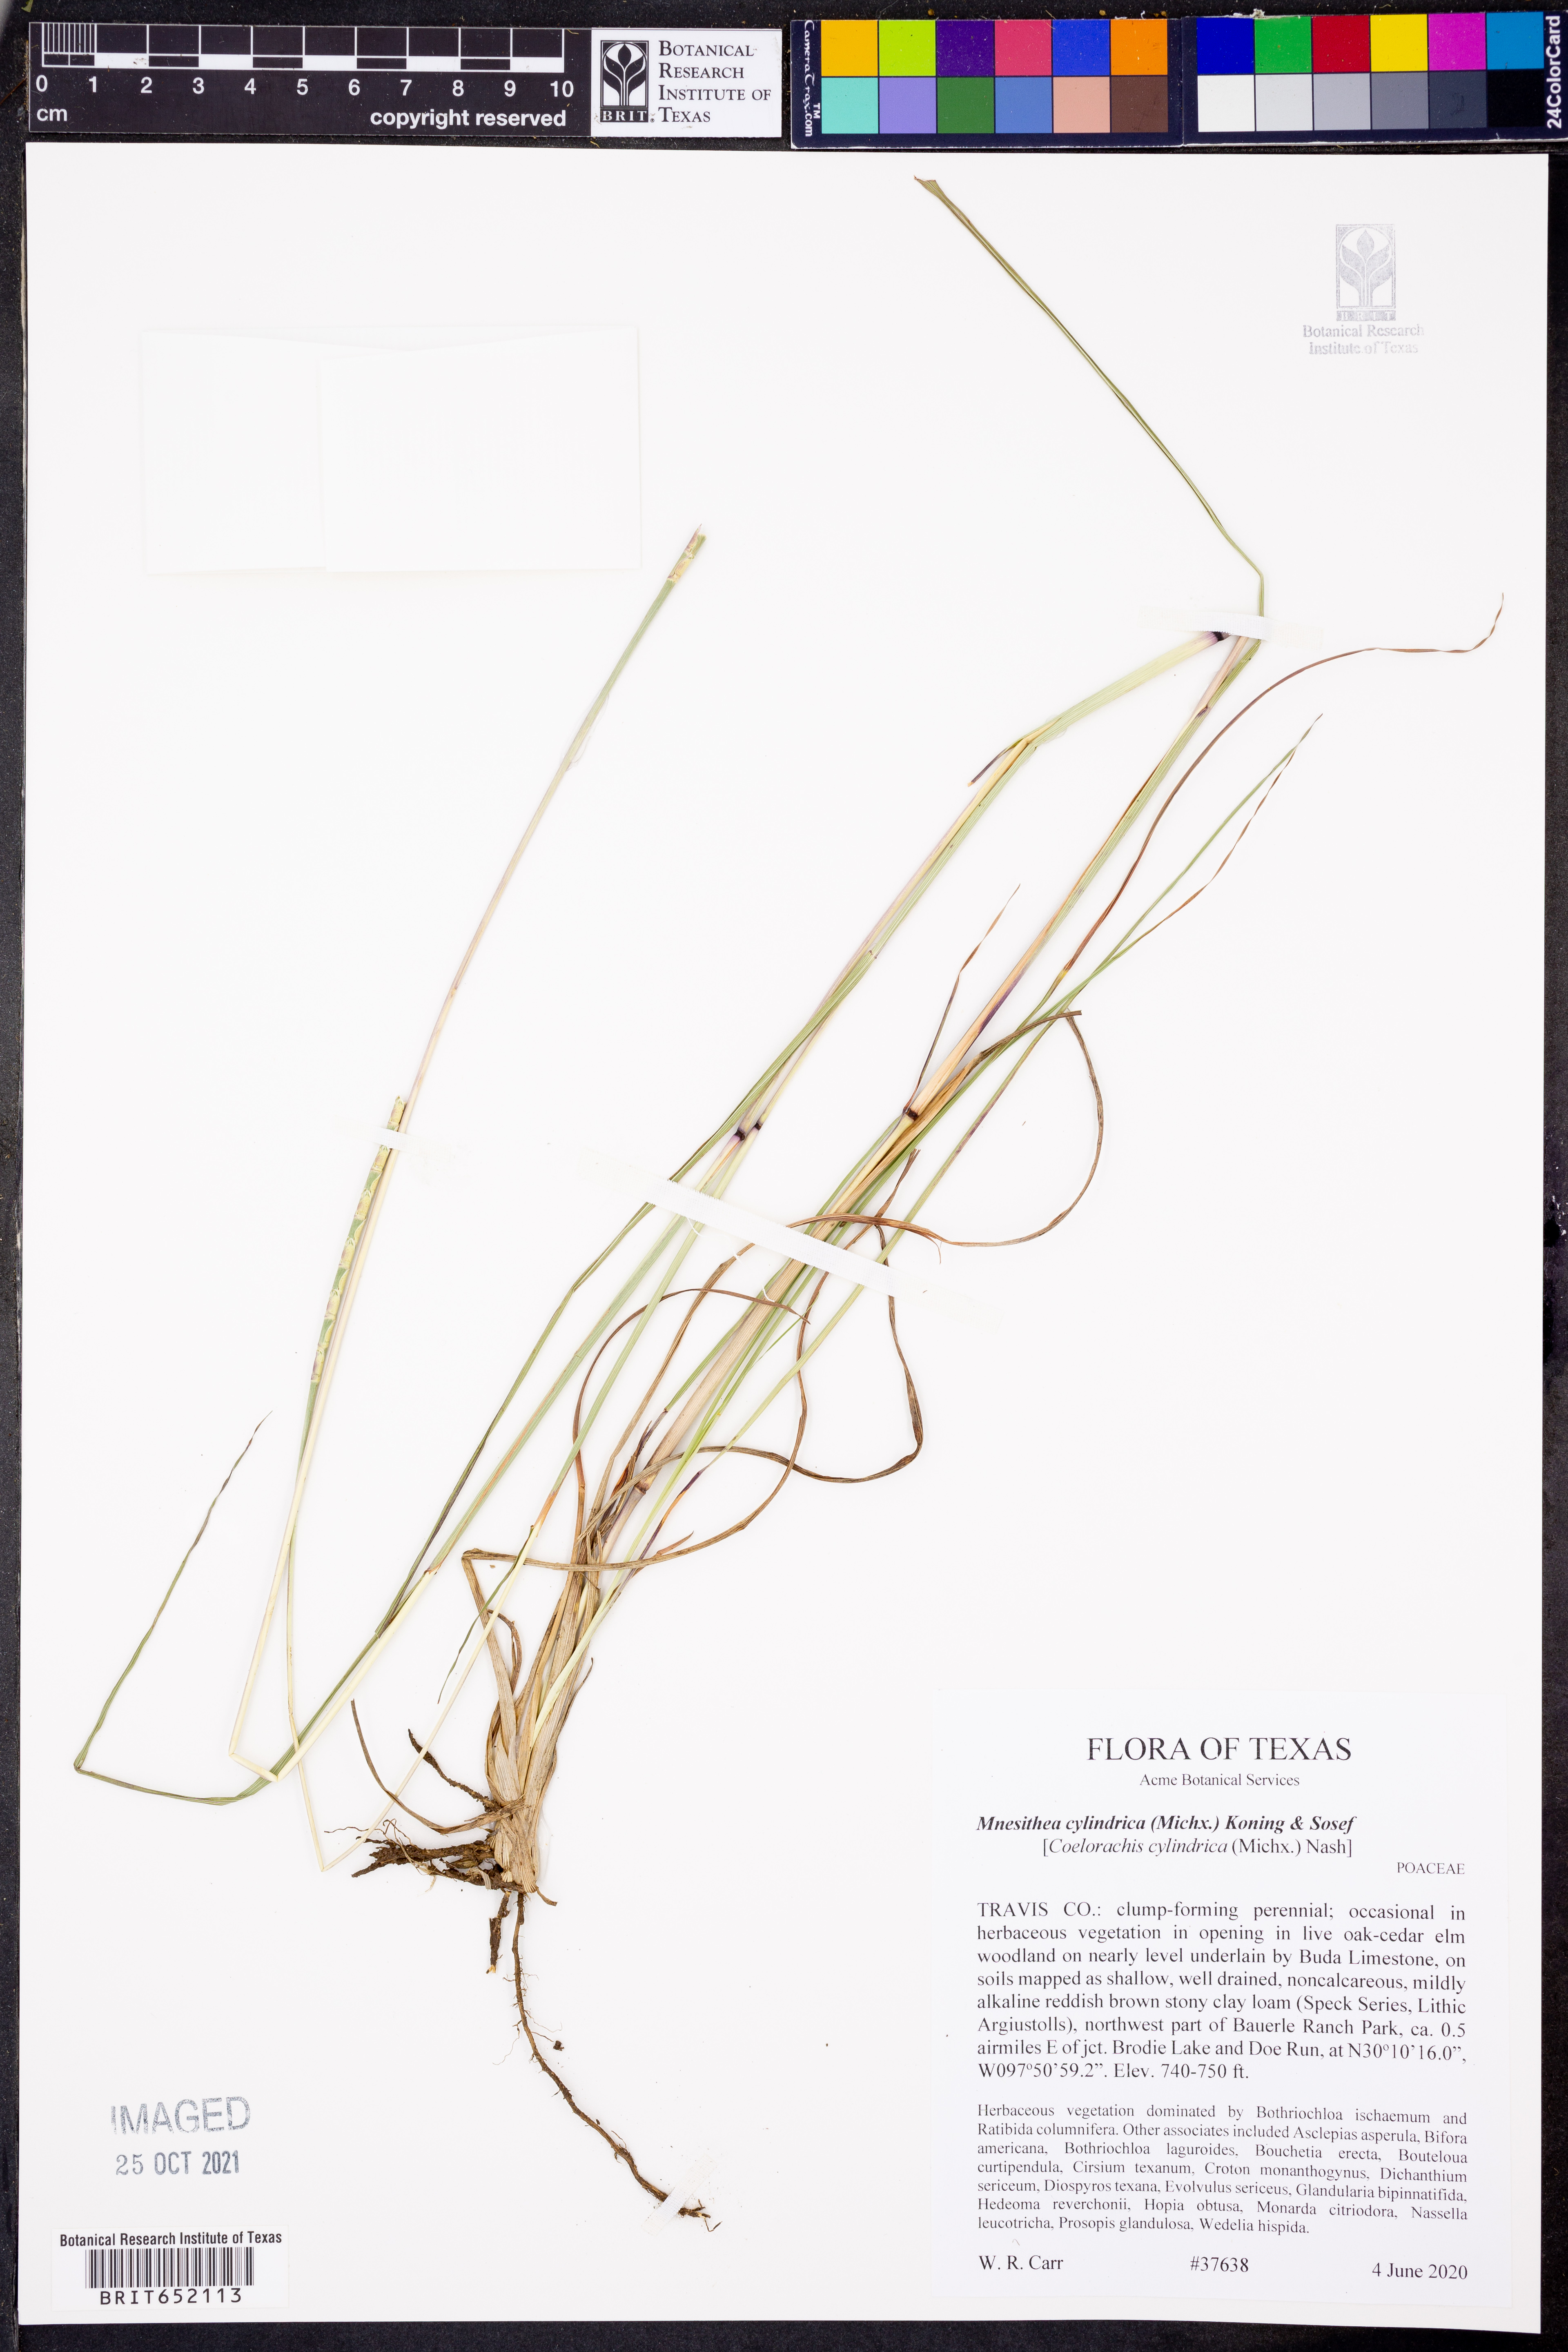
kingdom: Plantae
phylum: Tracheophyta
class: Liliopsida
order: Poales
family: Poaceae
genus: Rottboellia
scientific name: Rottboellia campestris
